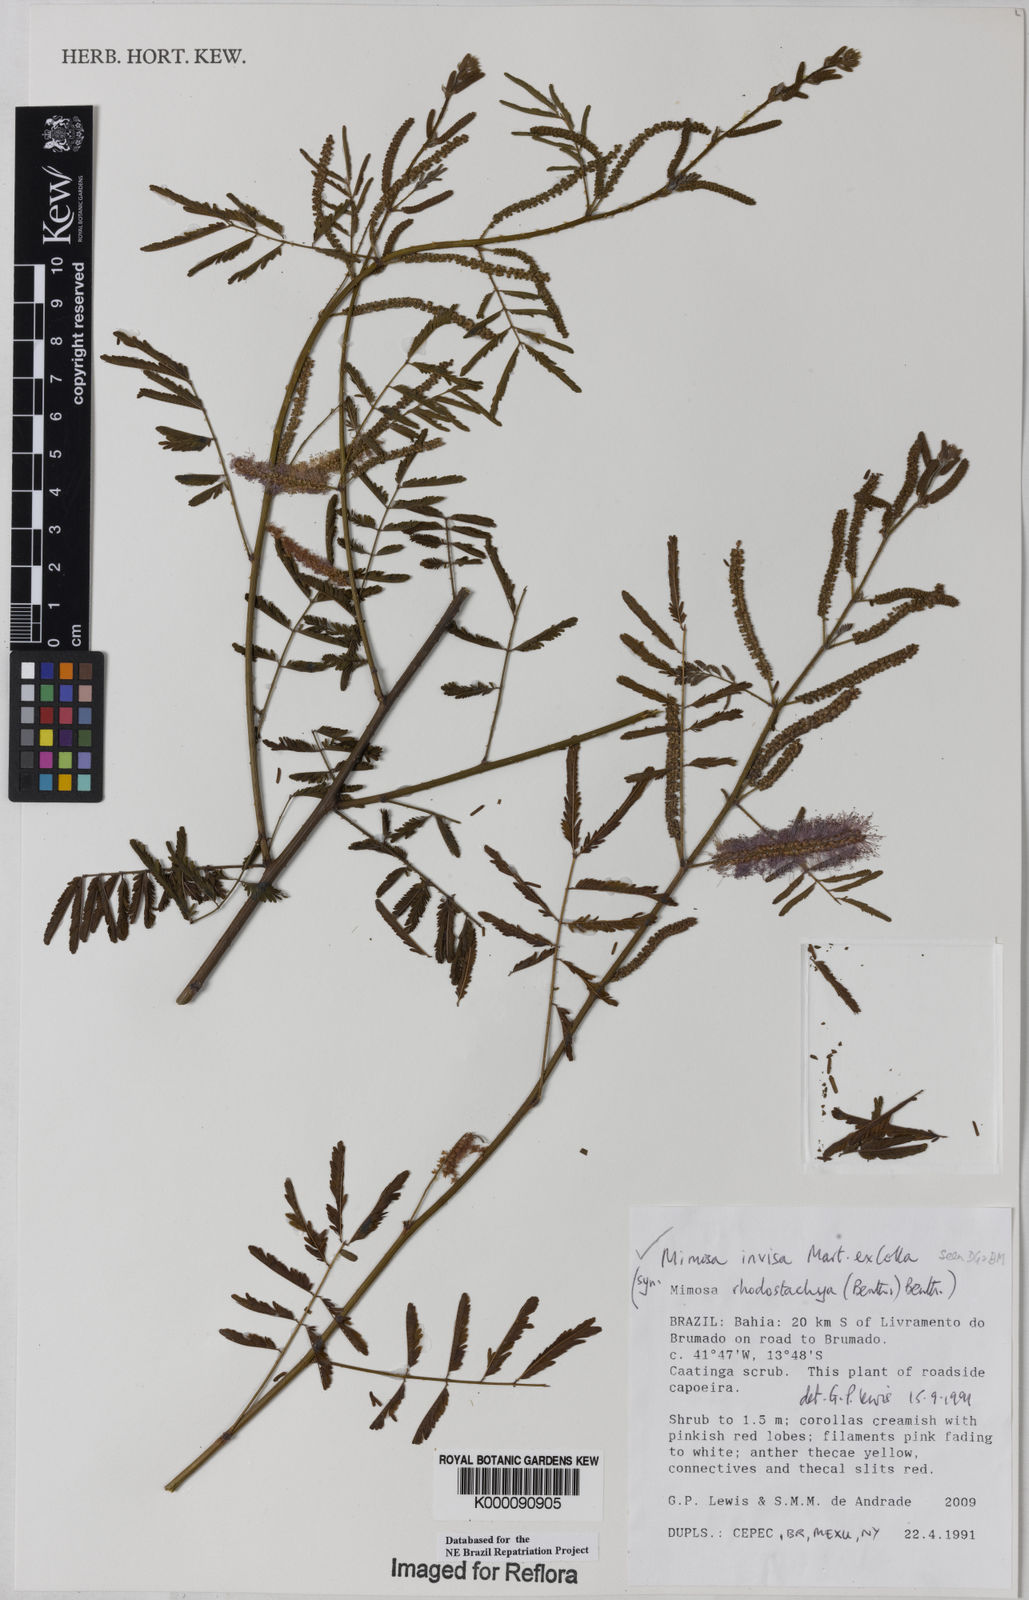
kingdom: Plantae
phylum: Tracheophyta
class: Magnoliopsida
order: Fabales
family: Fabaceae
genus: Mimosa
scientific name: Mimosa invisa
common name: Creeping sensitive-plant
